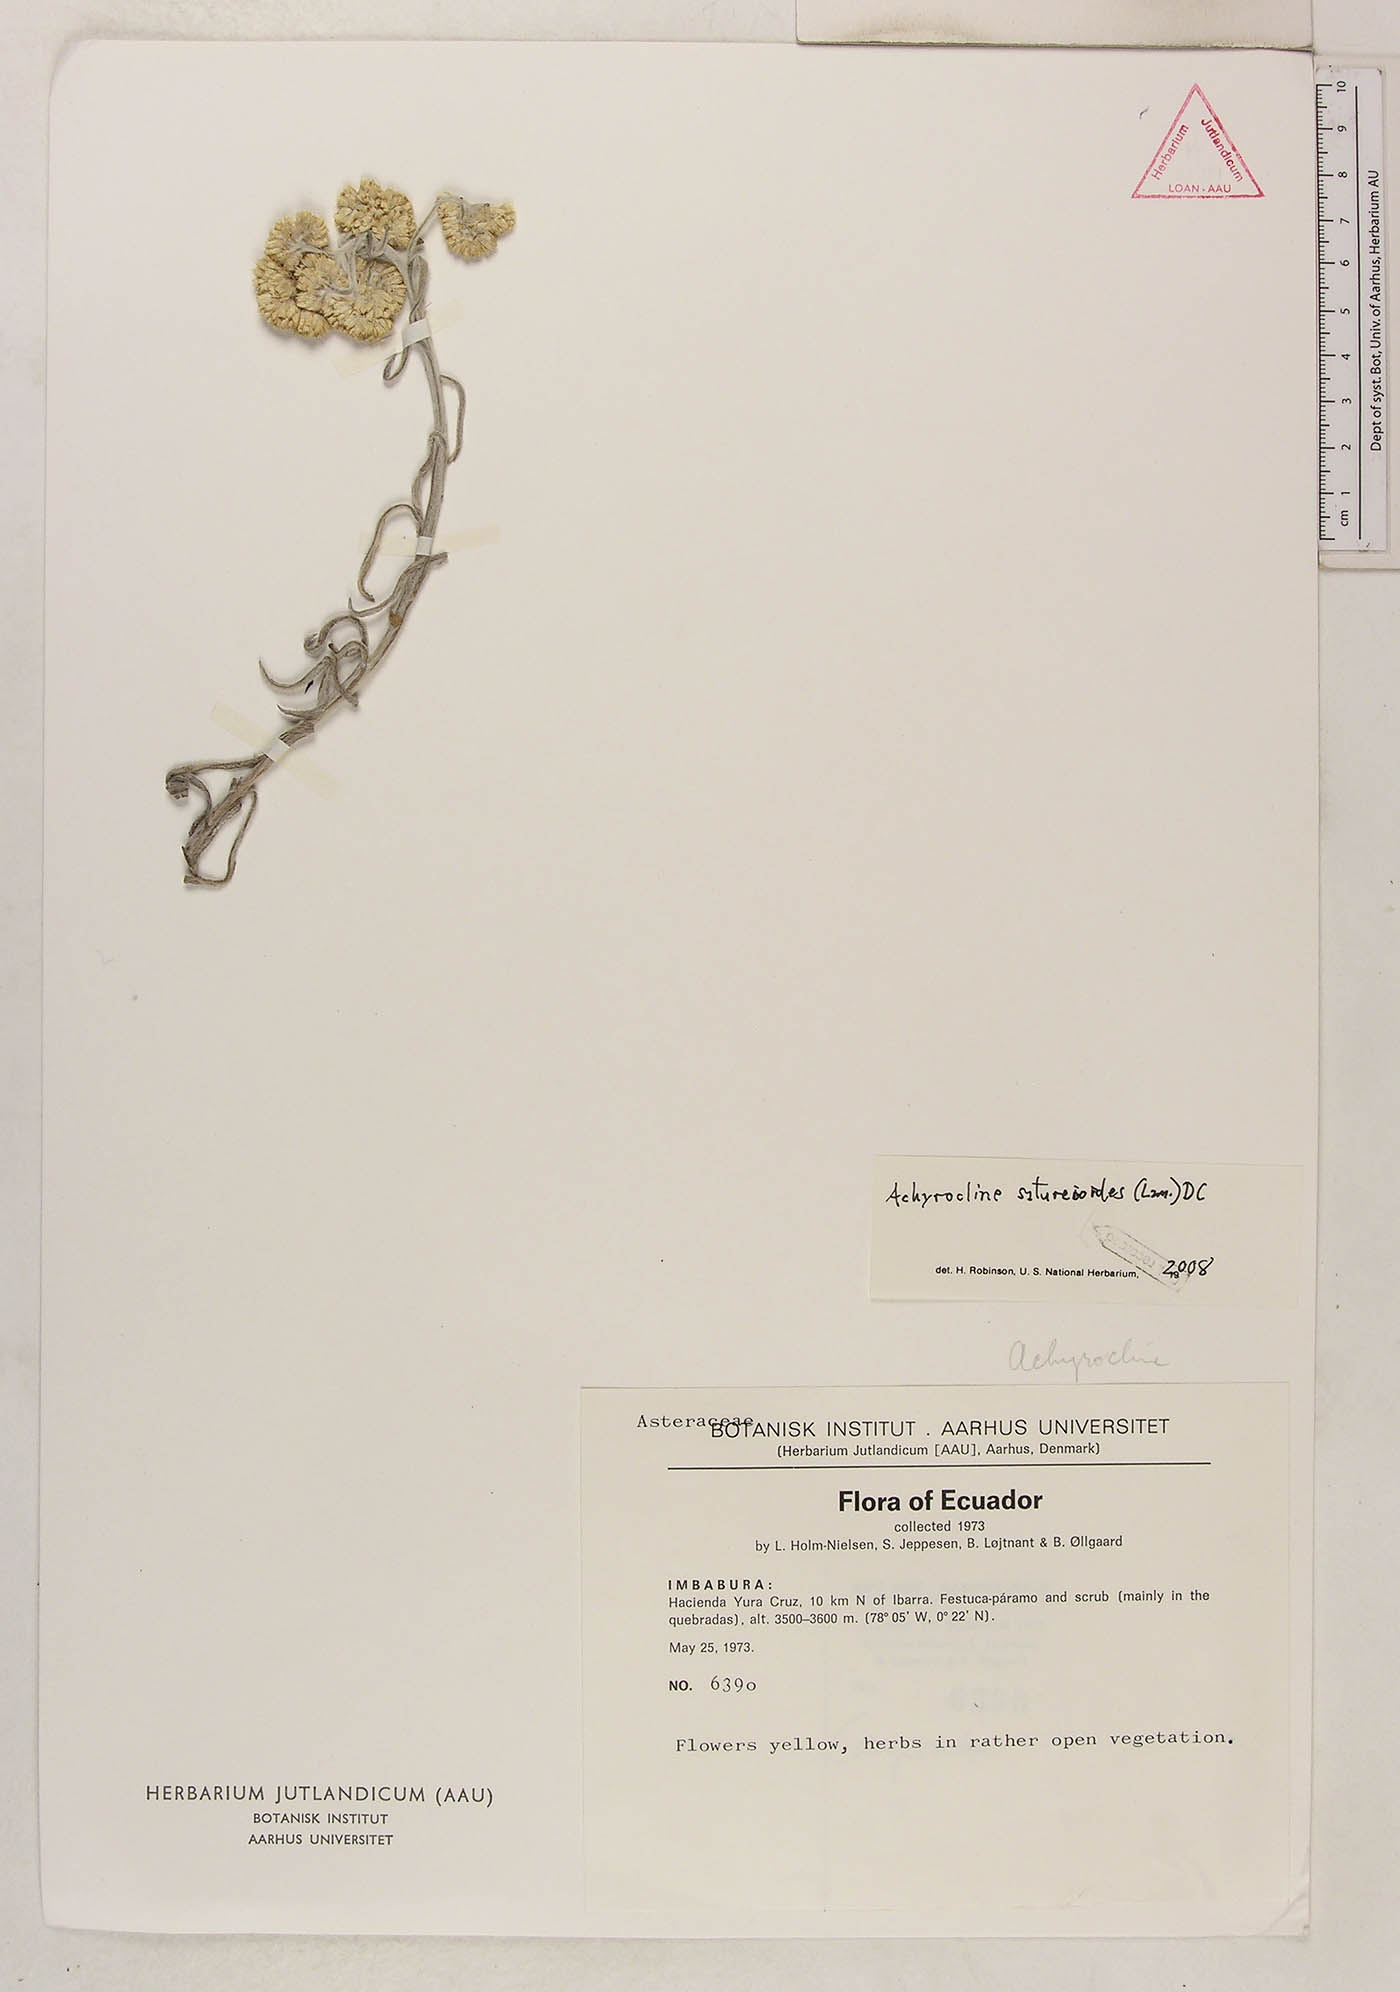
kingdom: Plantae
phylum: Tracheophyta
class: Magnoliopsida
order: Asterales
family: Asteraceae
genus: Achyrocline
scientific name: Achyrocline satureioides
